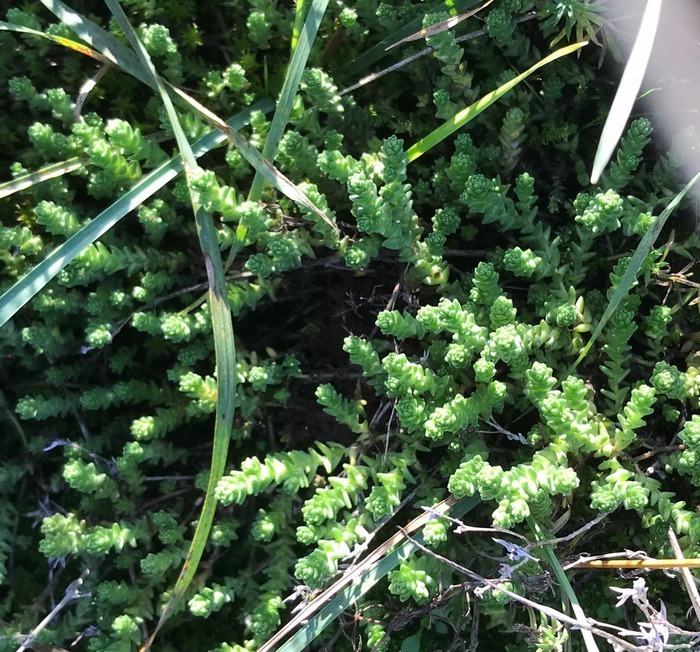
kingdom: Plantae
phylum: Tracheophyta
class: Magnoliopsida
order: Saxifragales
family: Crassulaceae
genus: Sedum
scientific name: Sedum acre
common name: Bidende stenurt
